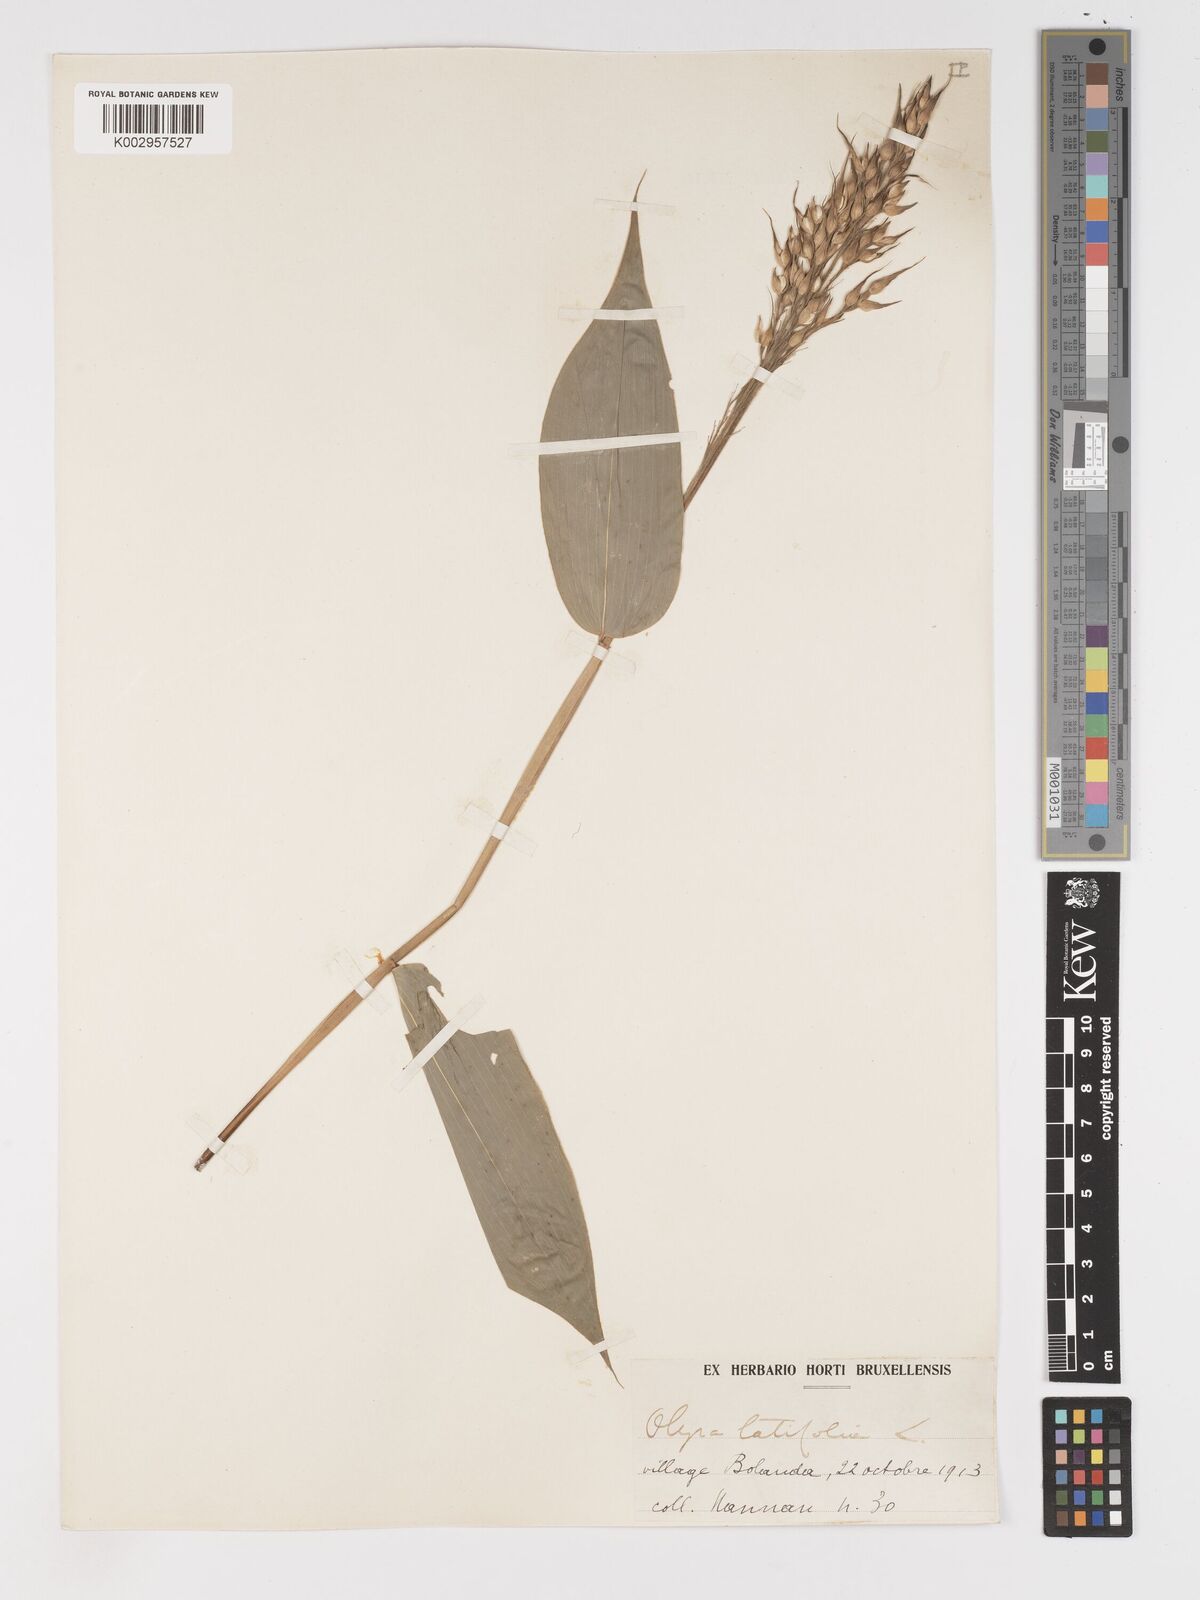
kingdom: Plantae
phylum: Tracheophyta
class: Liliopsida
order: Poales
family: Poaceae
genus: Olyra
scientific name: Olyra latifolia
